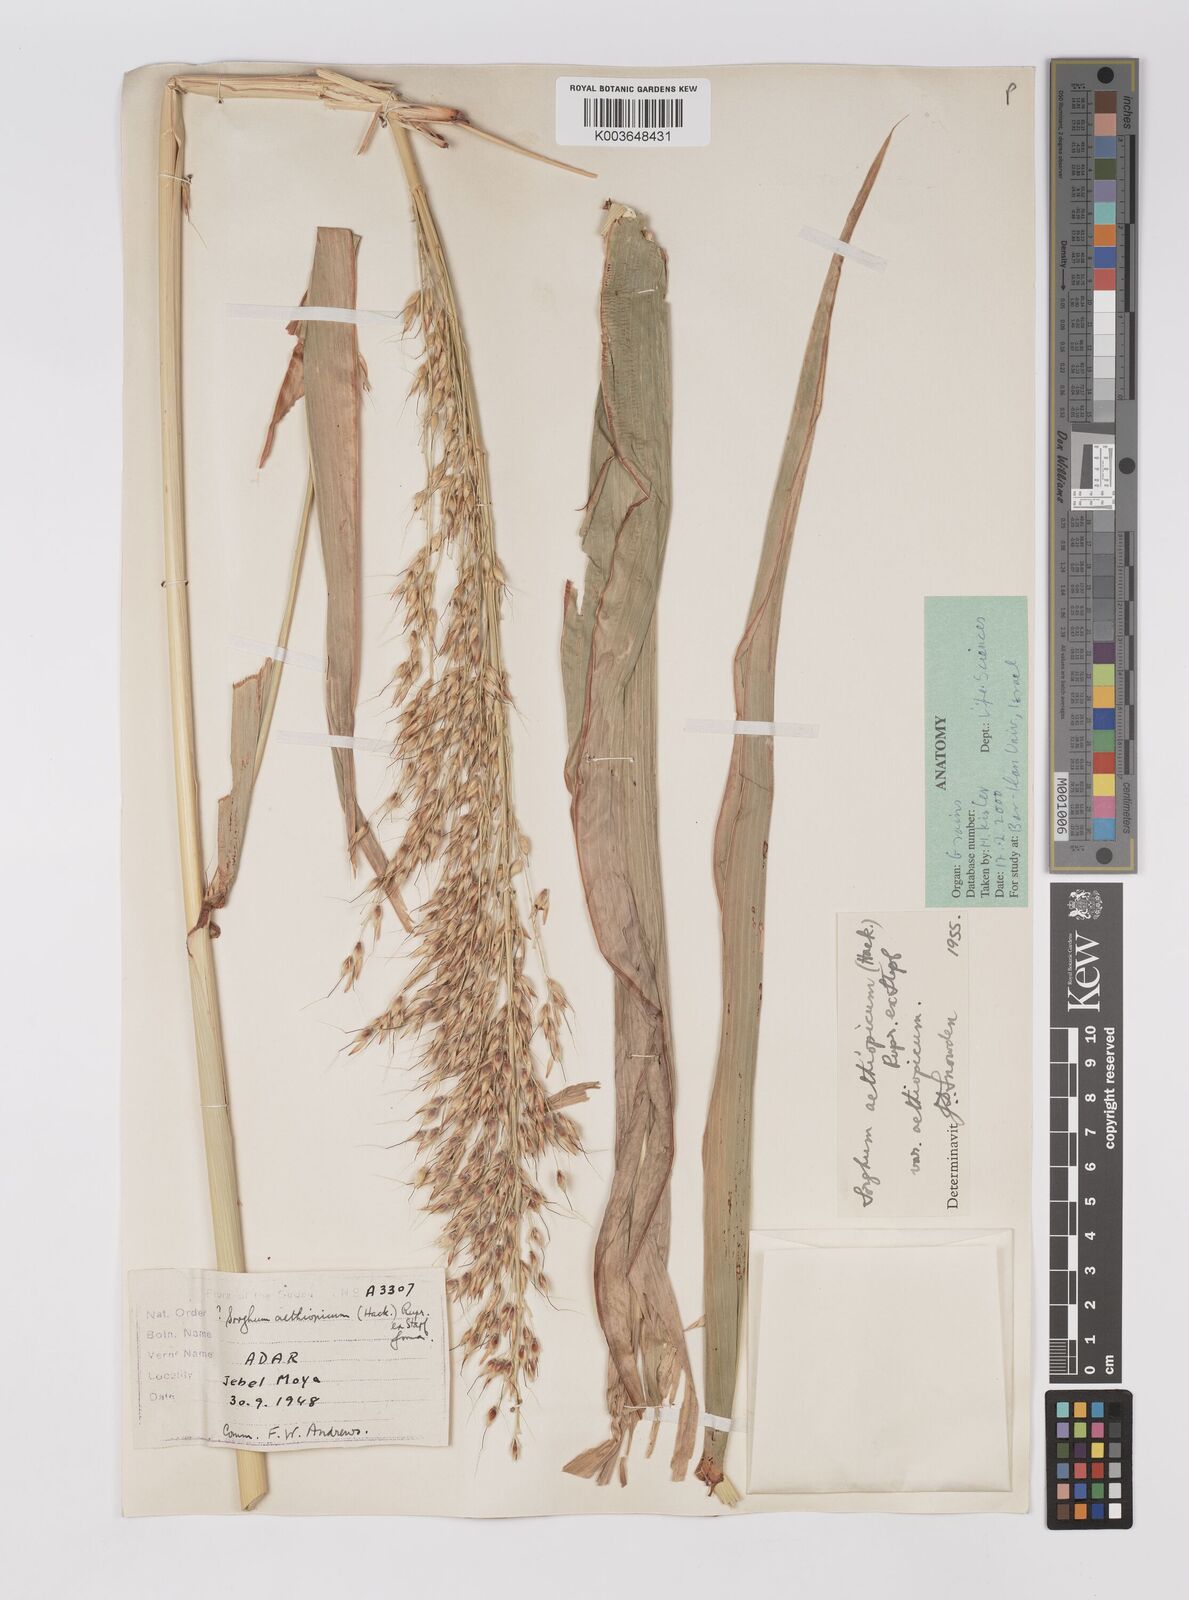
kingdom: Plantae
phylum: Tracheophyta
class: Liliopsida
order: Poales
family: Poaceae
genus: Sorghum
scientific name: Sorghum arundinaceum
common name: Sorghum
